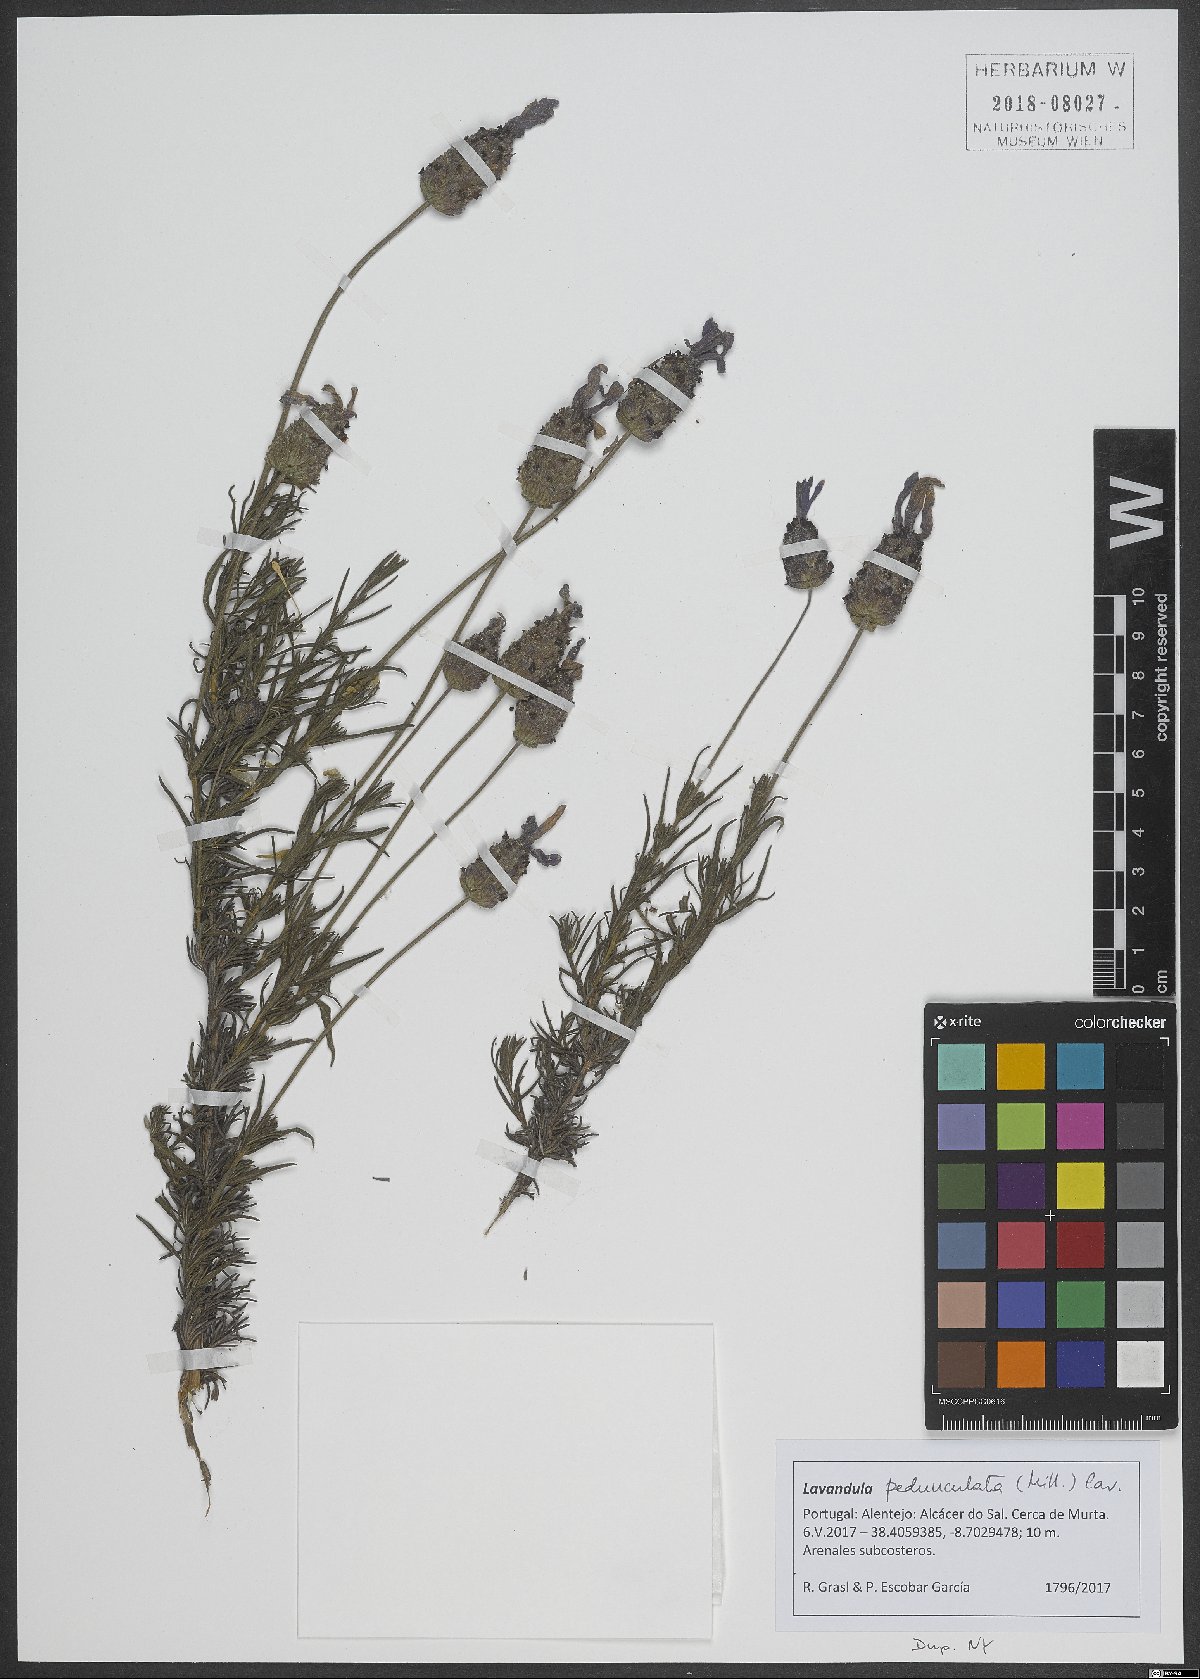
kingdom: Plantae
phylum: Tracheophyta
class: Magnoliopsida
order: Lamiales
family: Lamiaceae
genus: Lavandula
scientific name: Lavandula pedunculata
